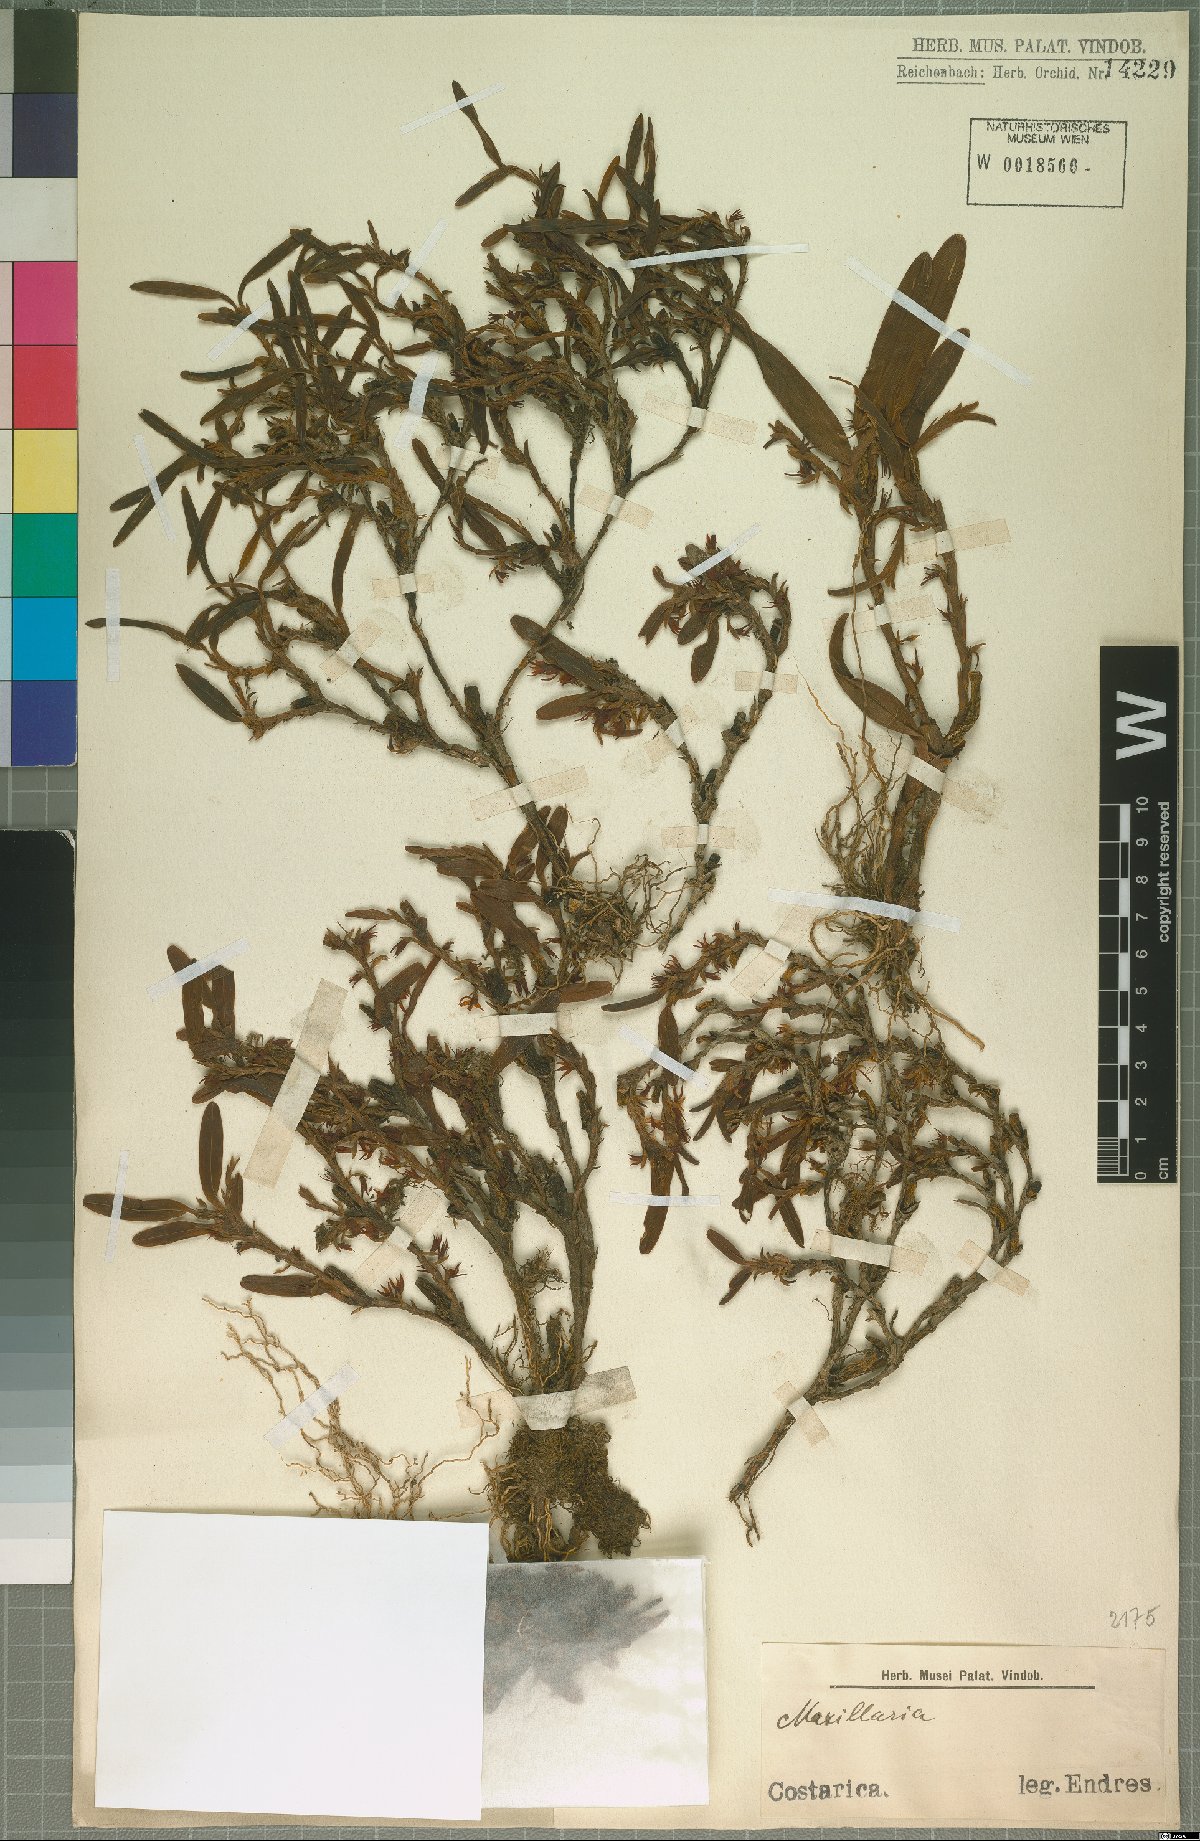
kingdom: Plantae
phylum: Tracheophyta
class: Liliopsida
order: Asparagales
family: Orchidaceae
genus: Maxillaria
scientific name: Maxillaria
